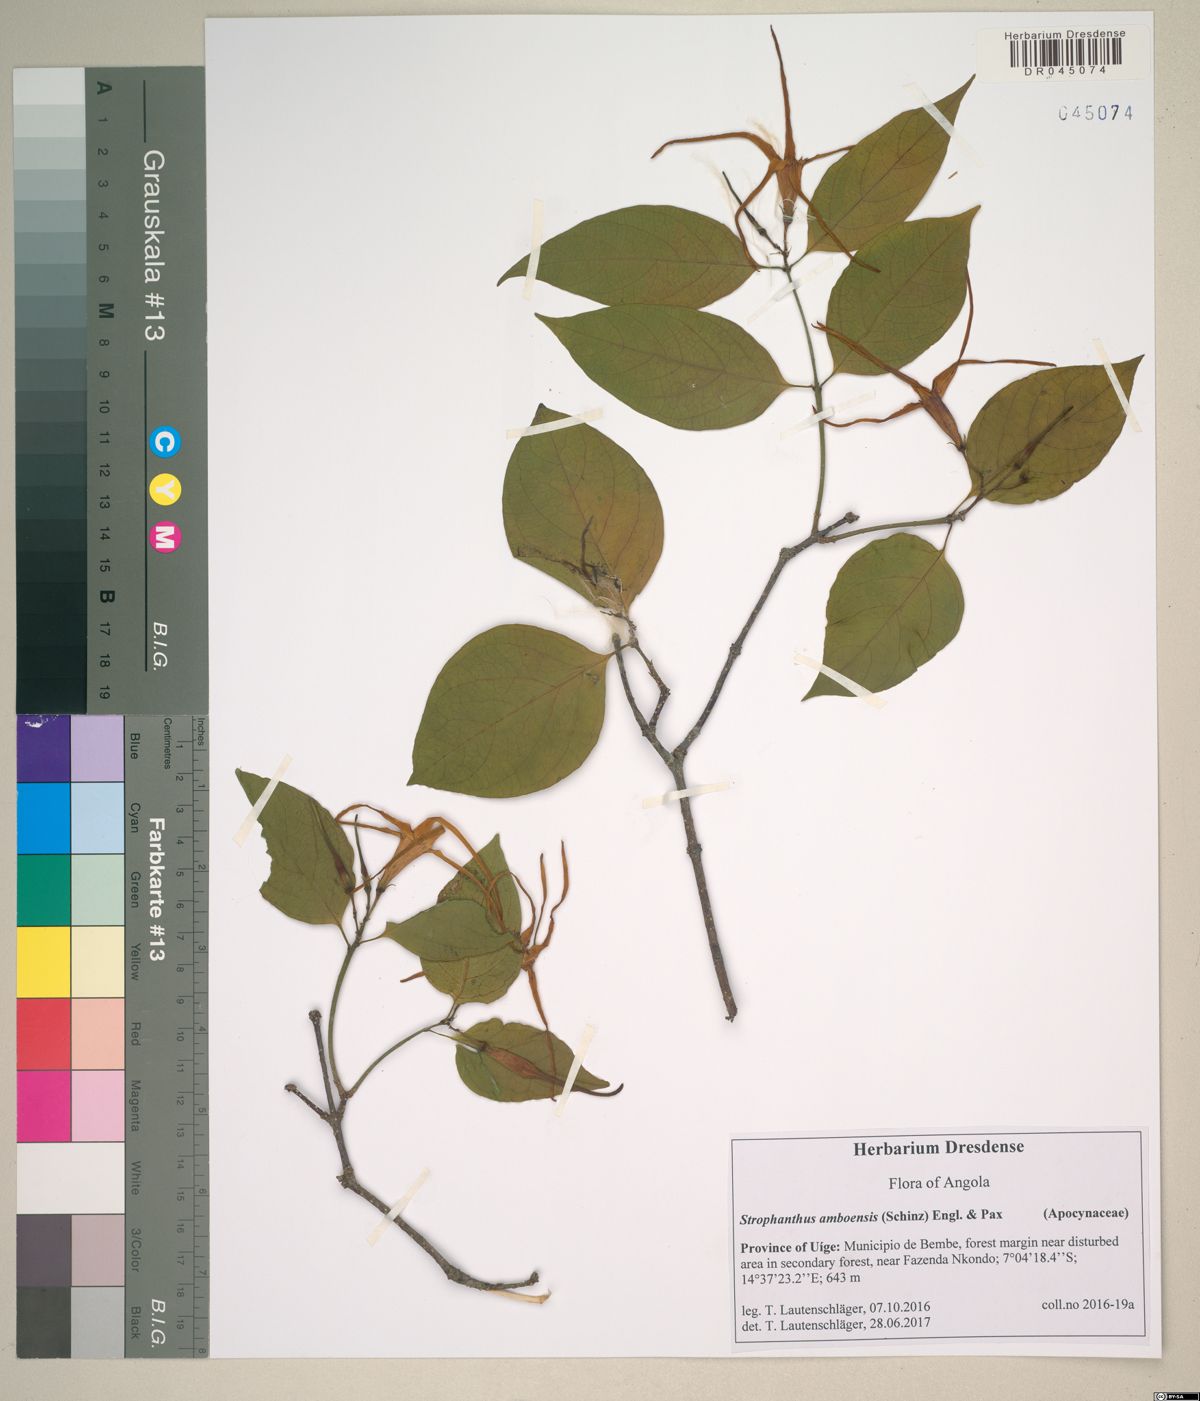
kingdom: Plantae
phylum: Tracheophyta
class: Magnoliopsida
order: Gentianales
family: Apocynaceae
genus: Strophanthus
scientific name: Strophanthus amboensis
